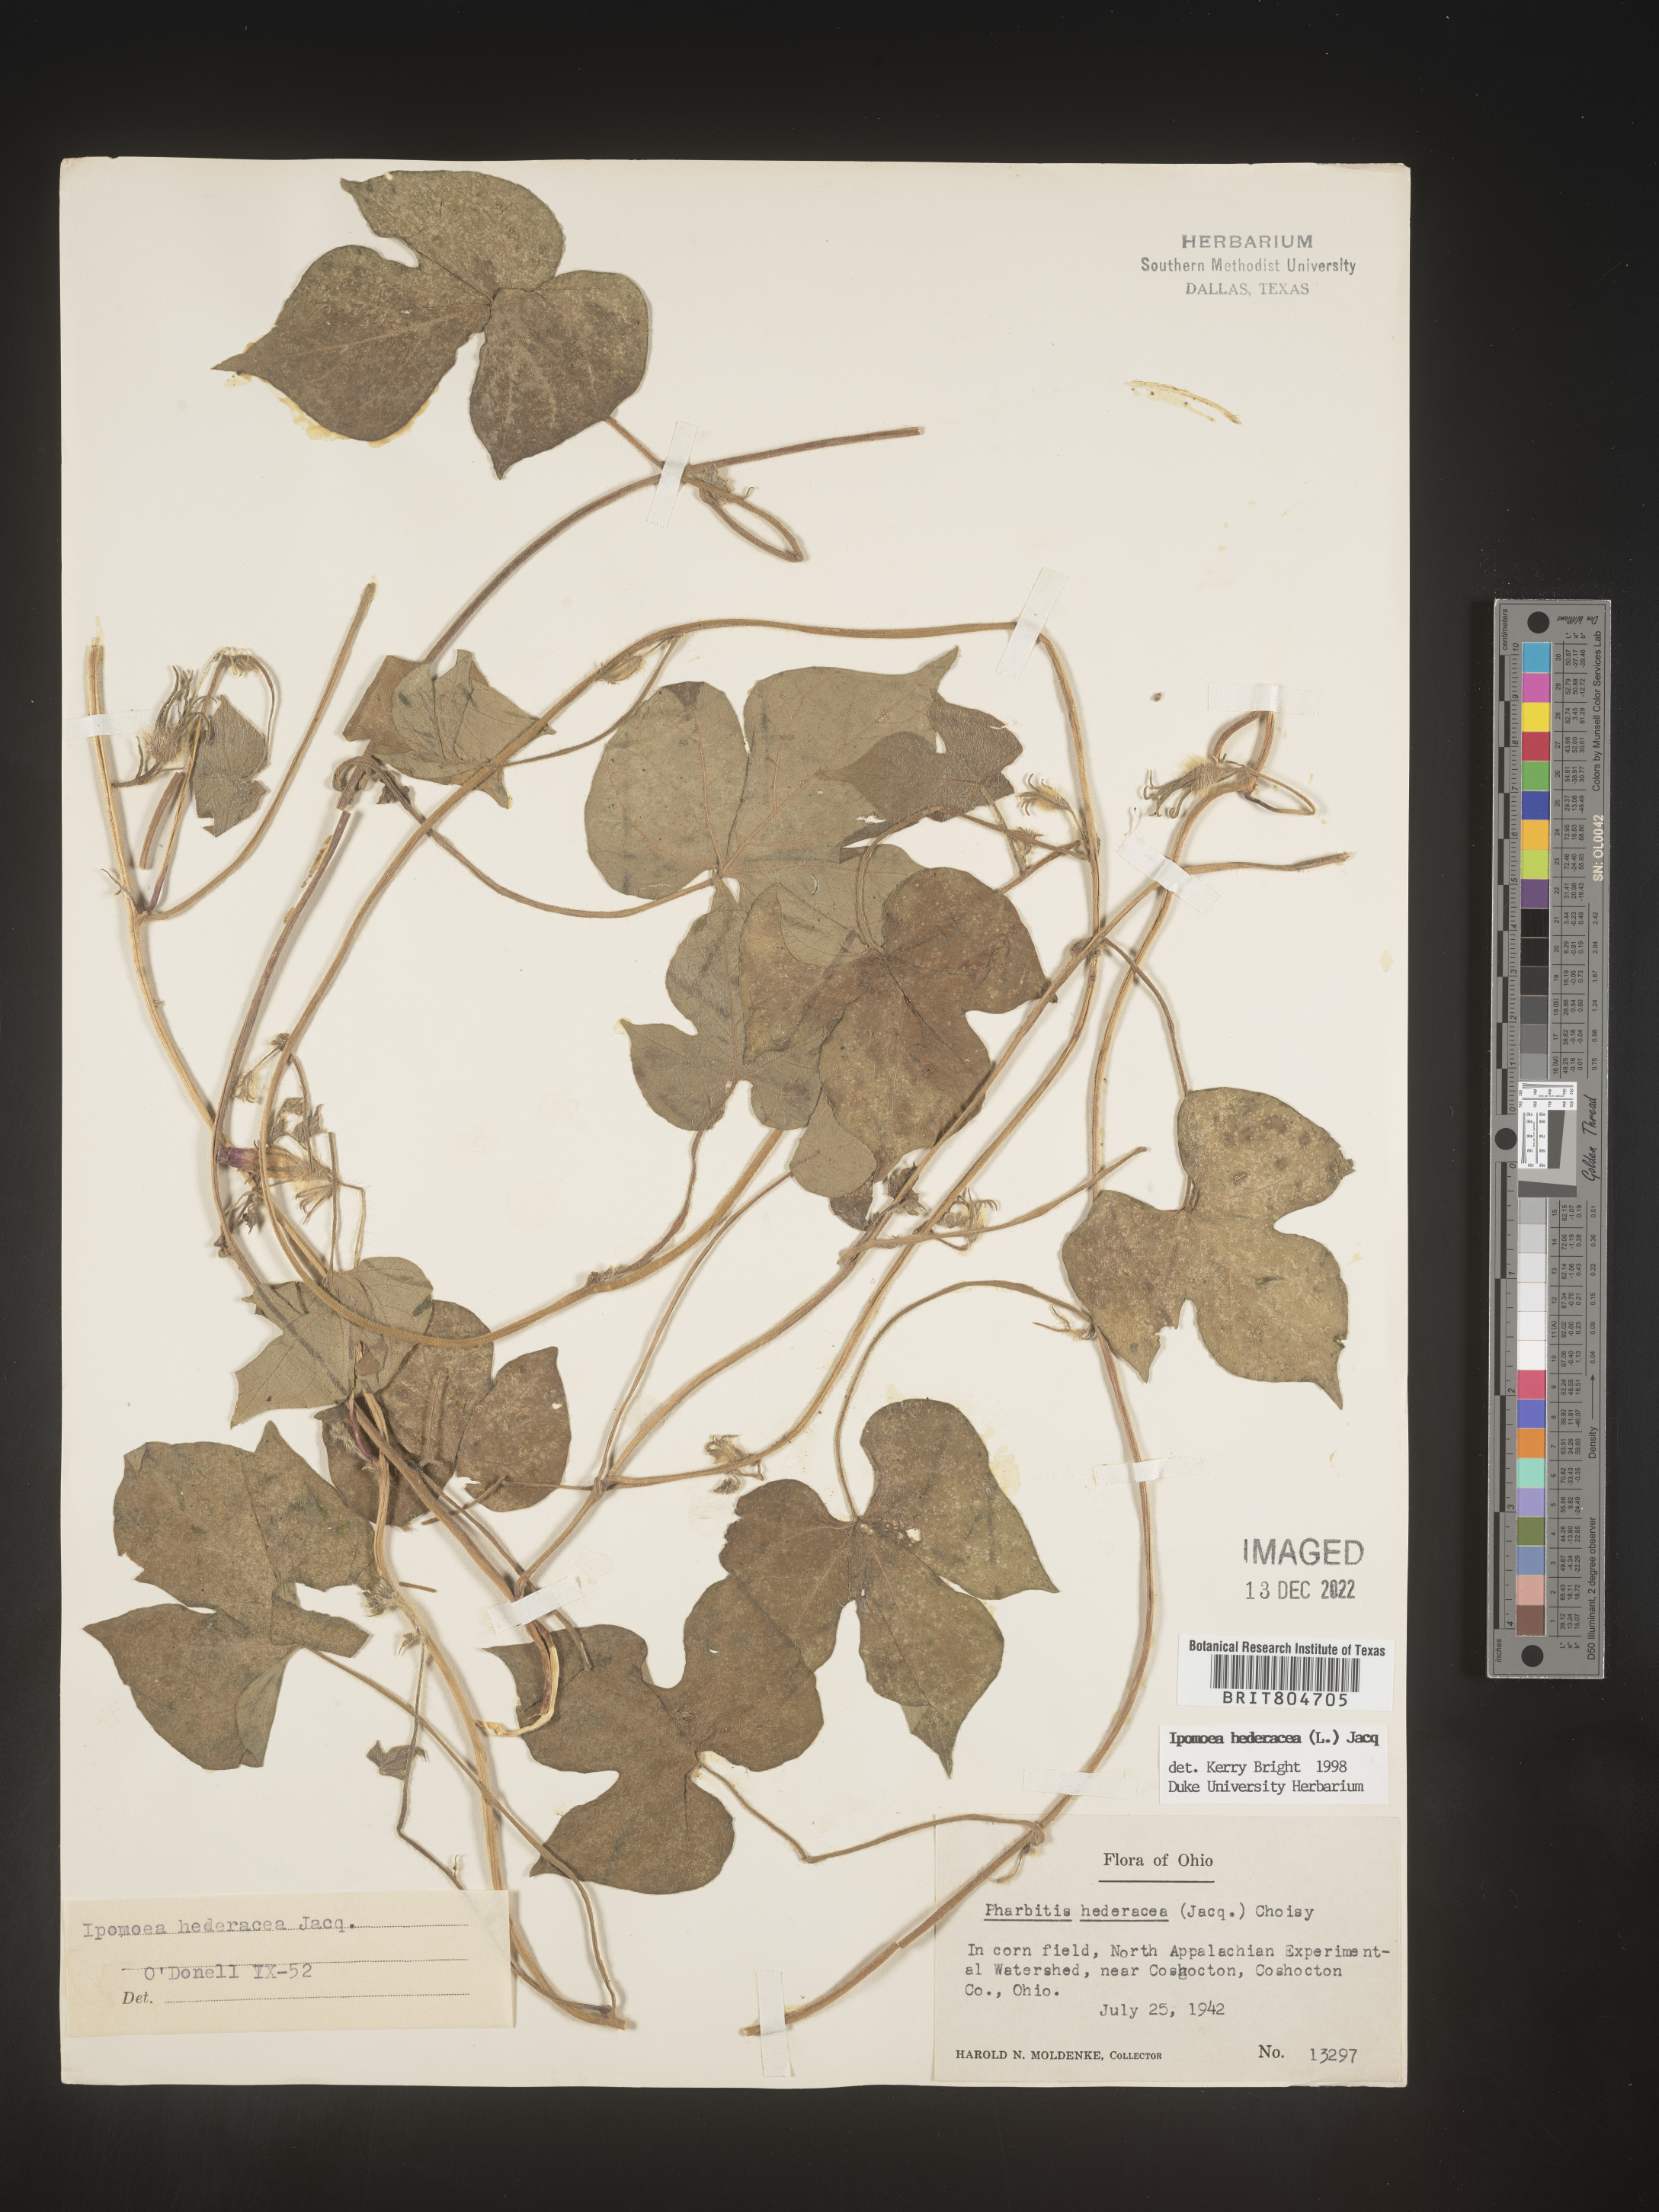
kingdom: Plantae
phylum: Tracheophyta
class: Magnoliopsida
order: Solanales
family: Convolvulaceae
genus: Ipomoea
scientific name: Ipomoea hederacea
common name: Ivy-leaved morning-glory
